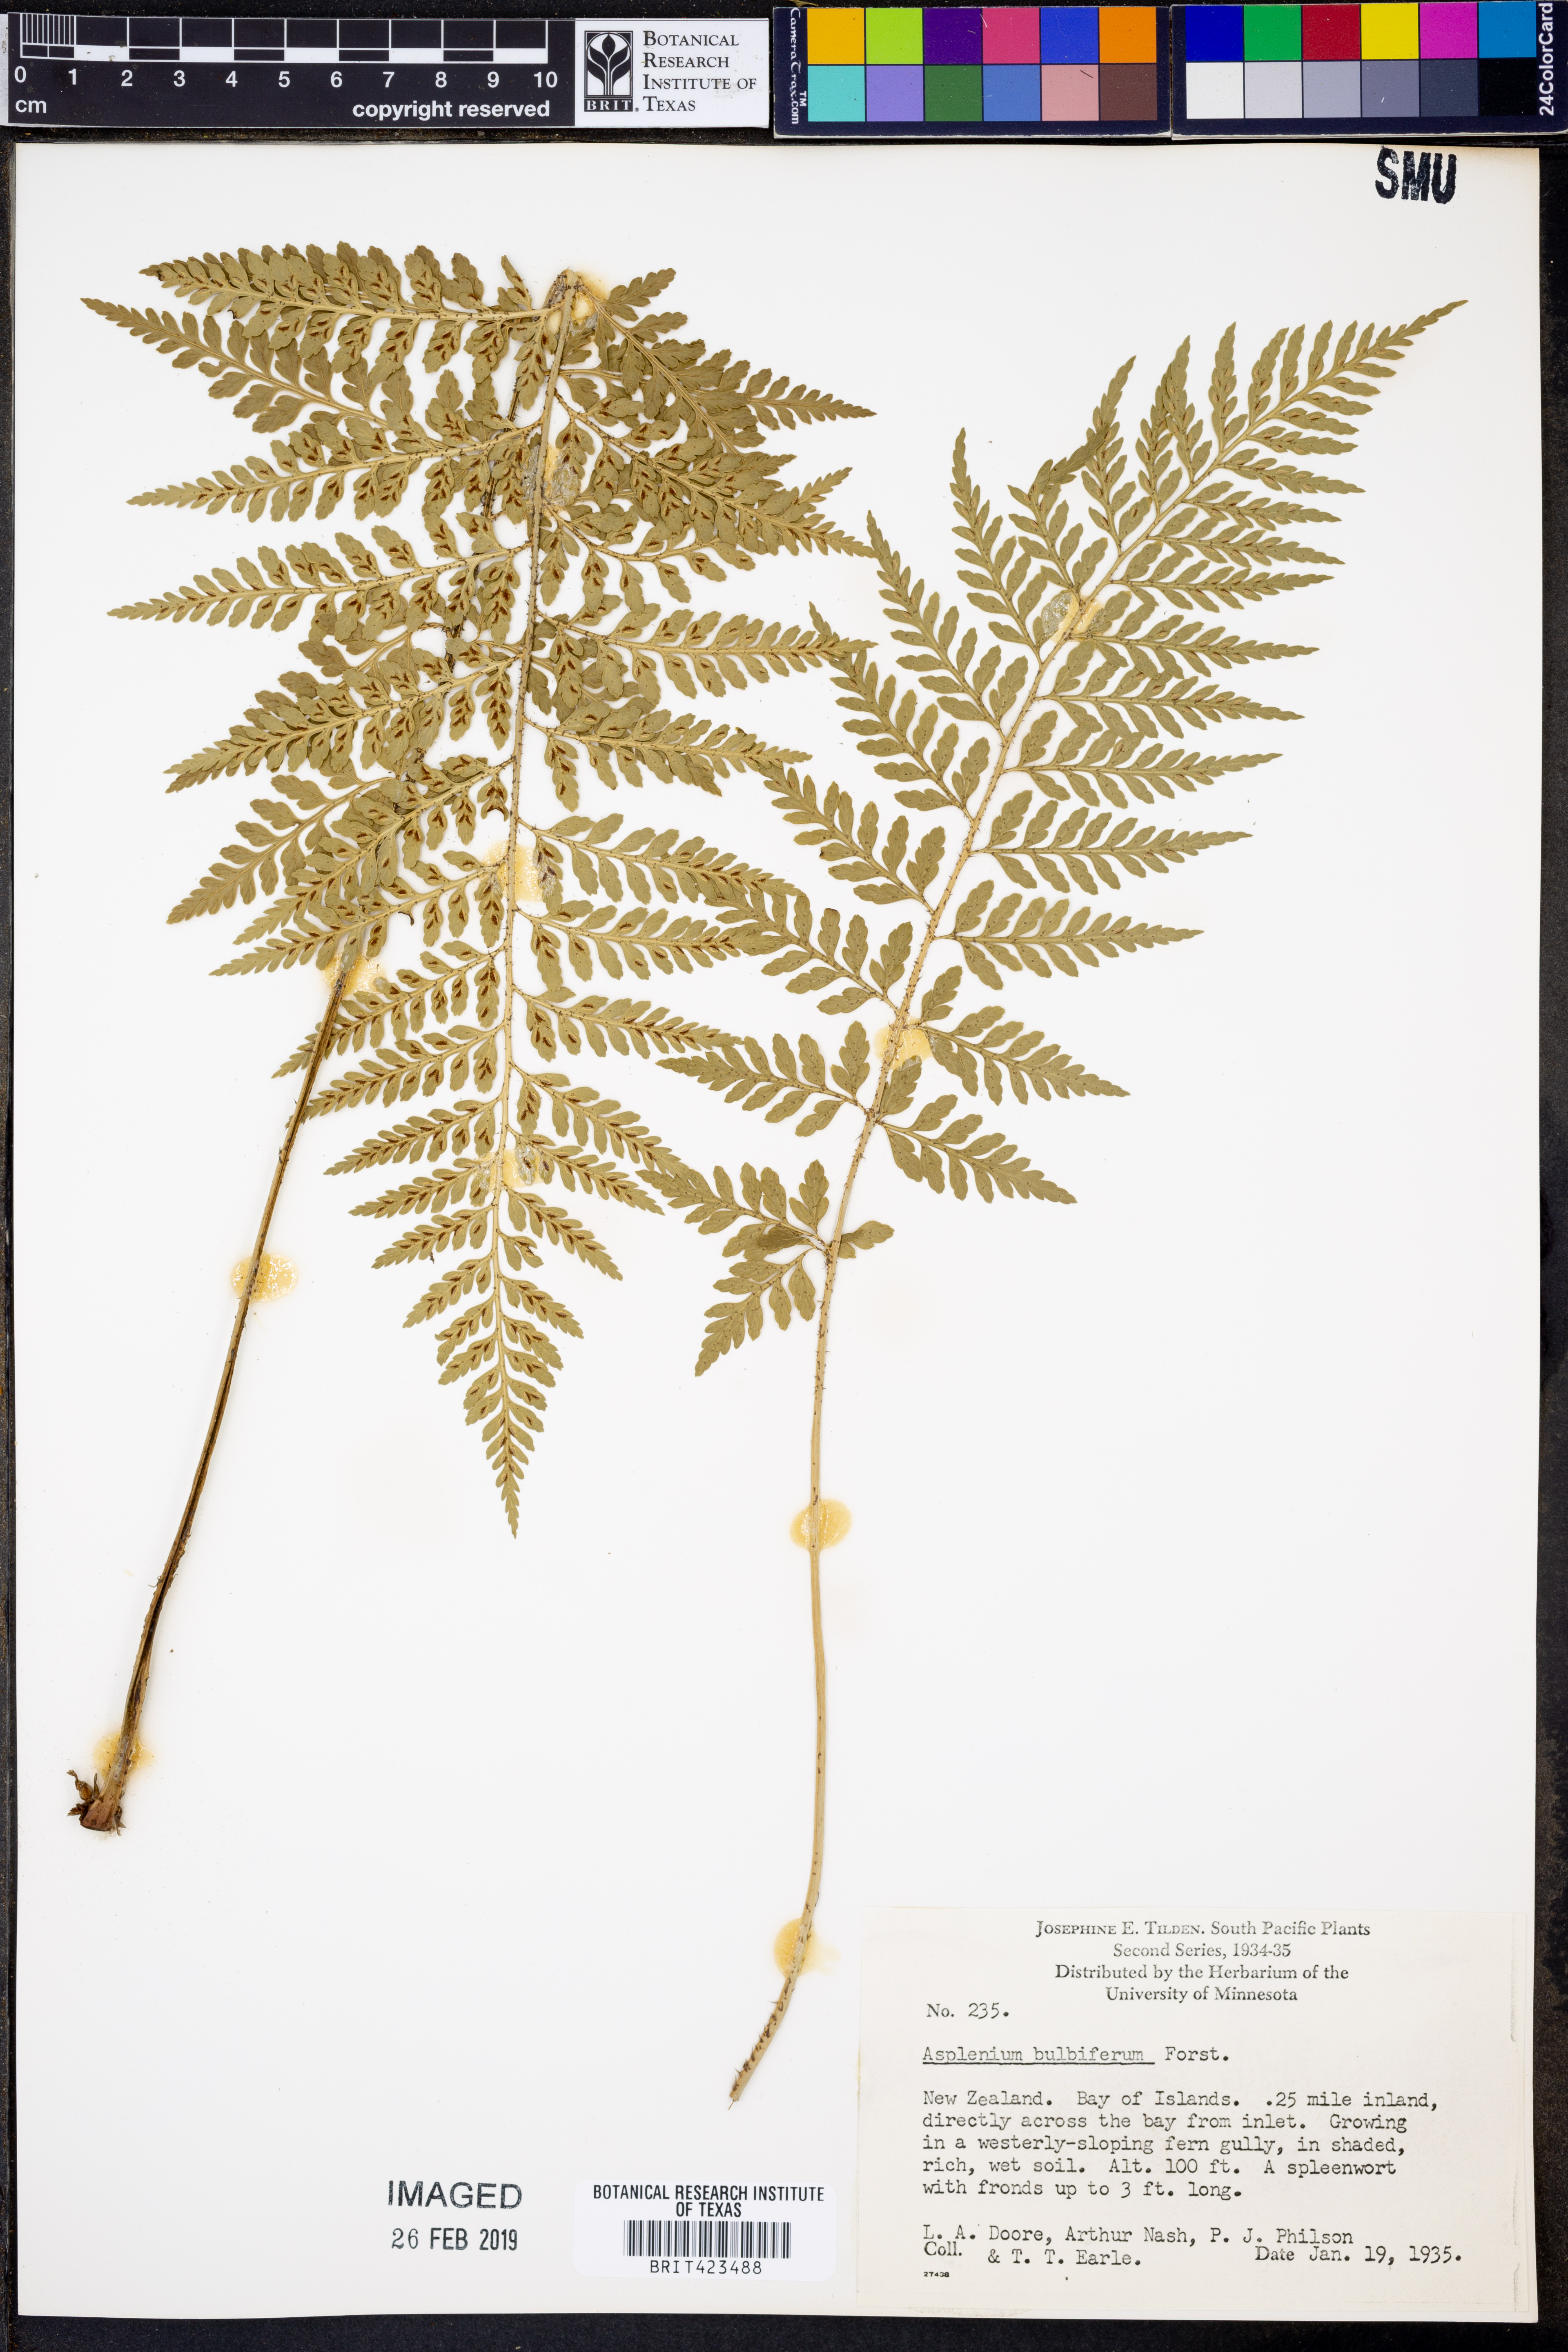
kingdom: Plantae
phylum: Tracheophyta
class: Polypodiopsida
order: Polypodiales
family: Aspleniaceae
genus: Asplenium
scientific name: Asplenium bulbiferum
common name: Mother fern
